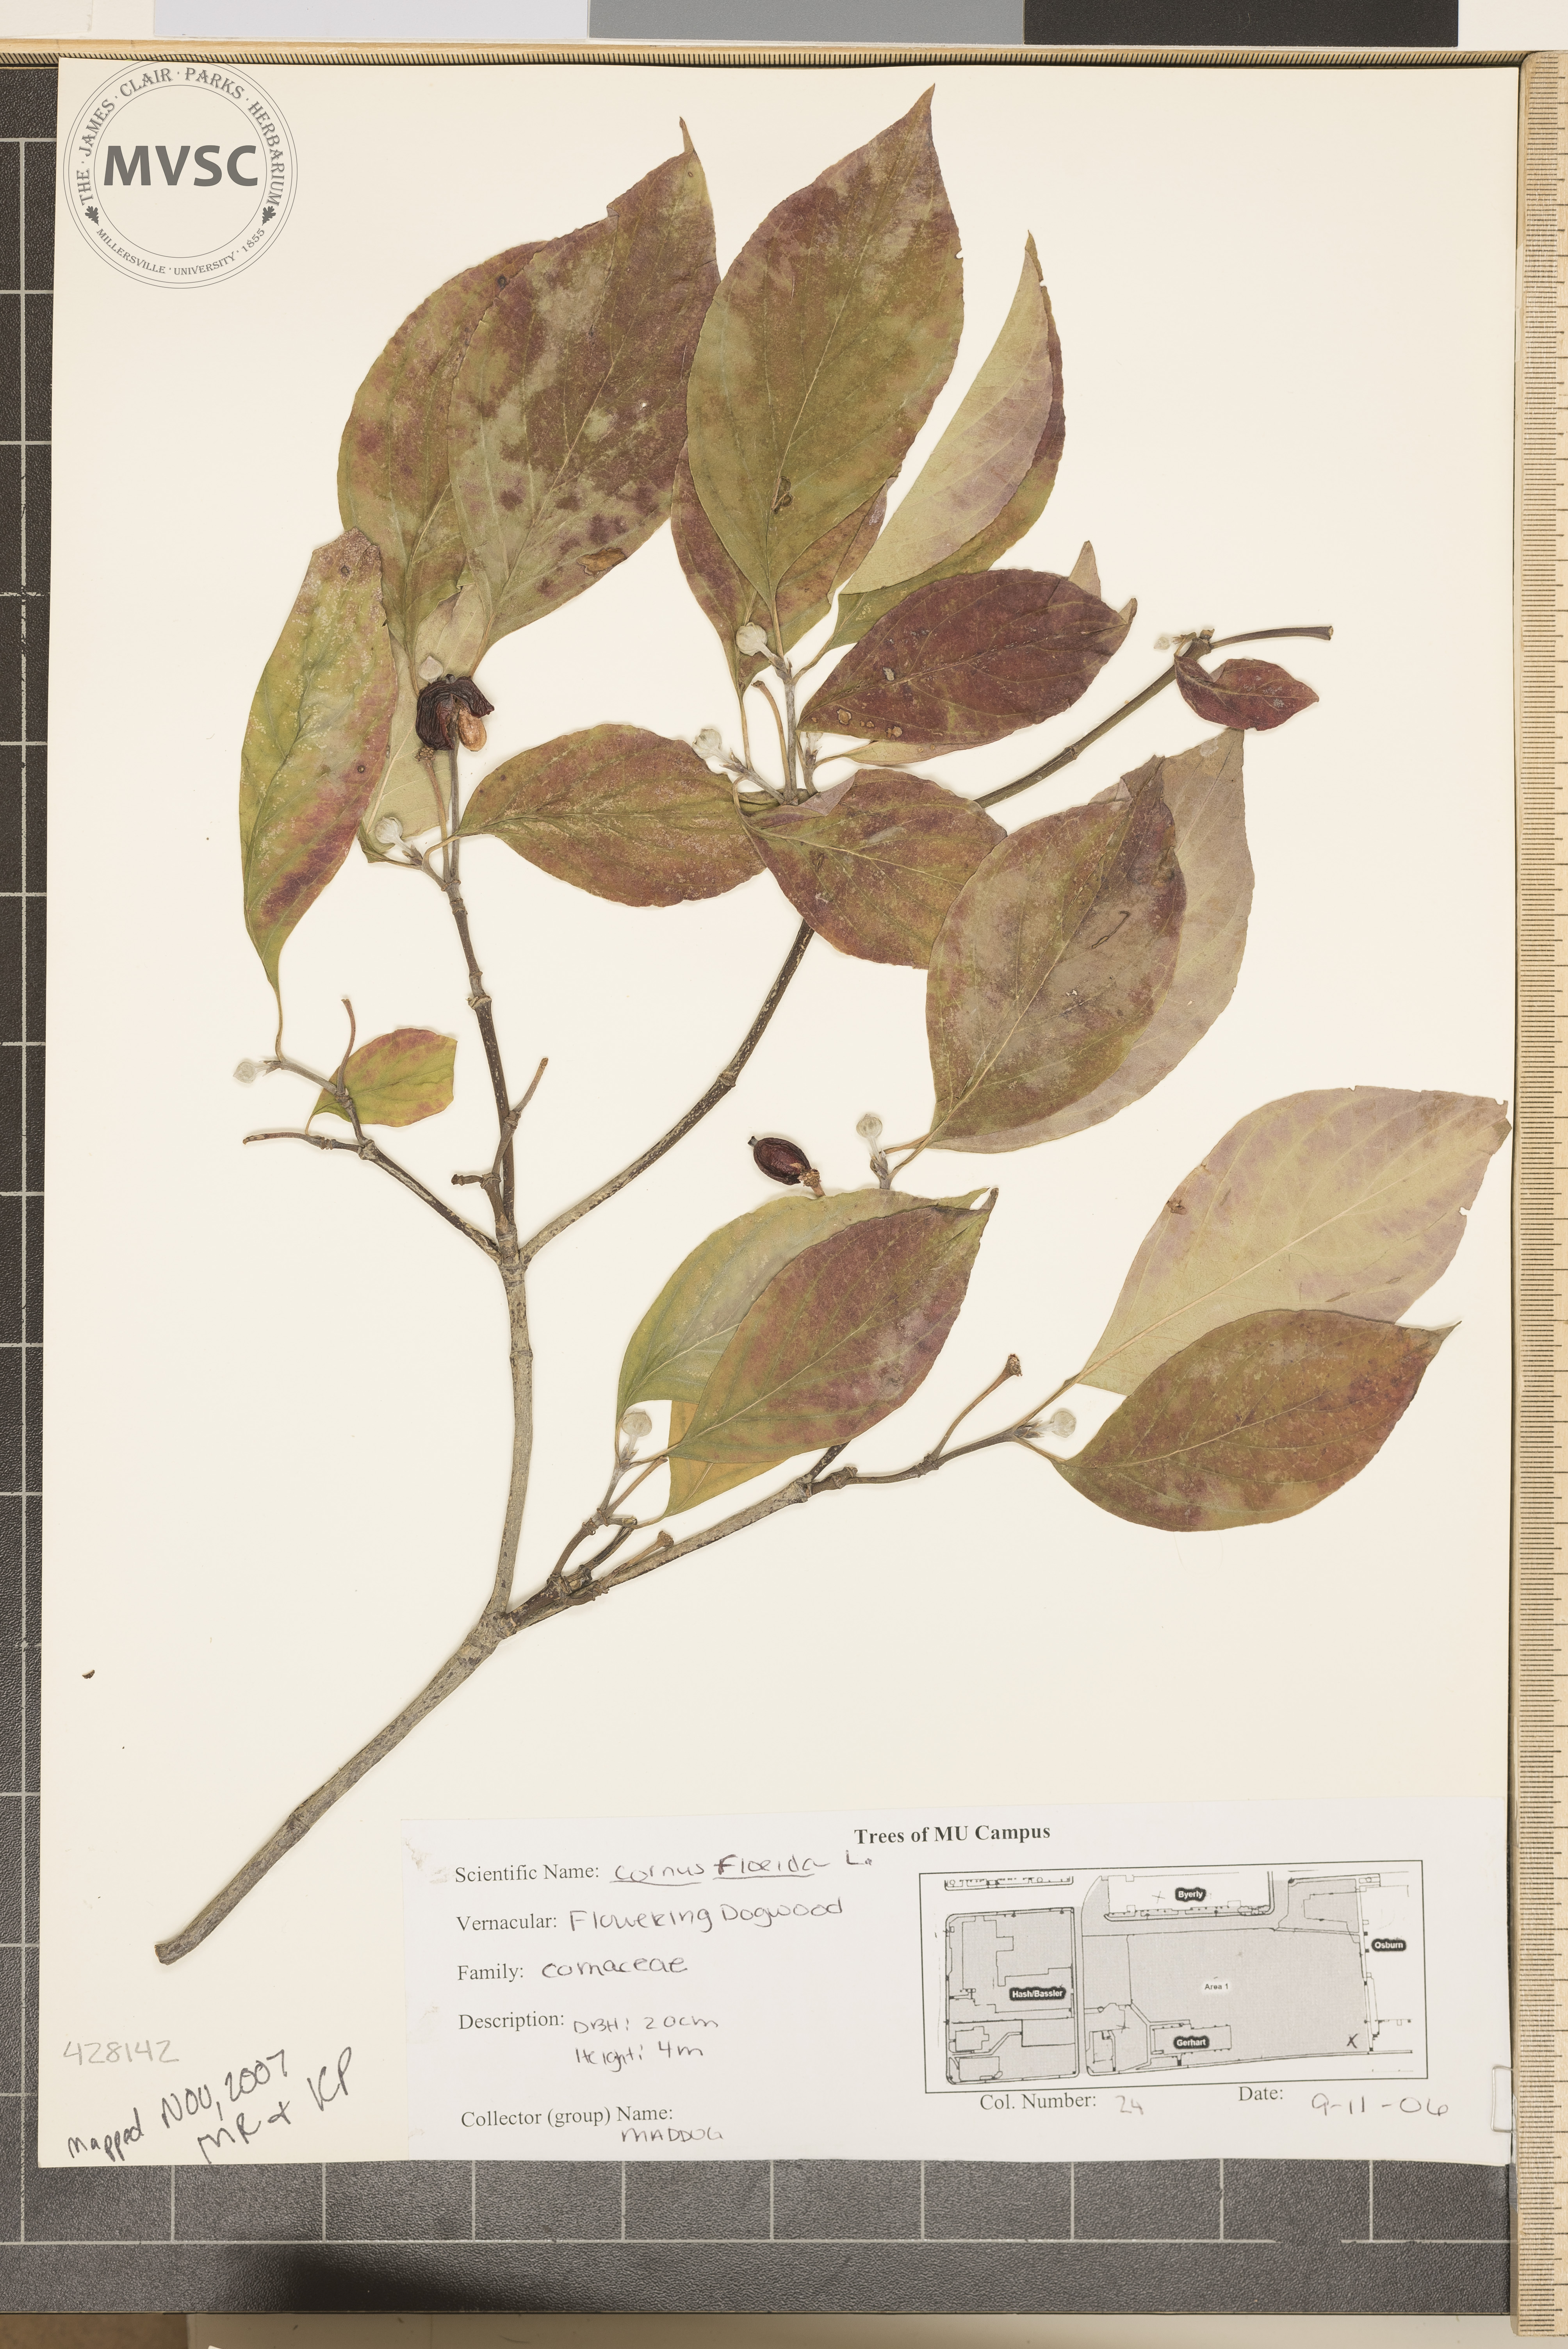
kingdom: Plantae
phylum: Tracheophyta
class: Magnoliopsida
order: Cornales
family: Cornaceae
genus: Cornus
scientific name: Cornus florida
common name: Flowering Dogwood
